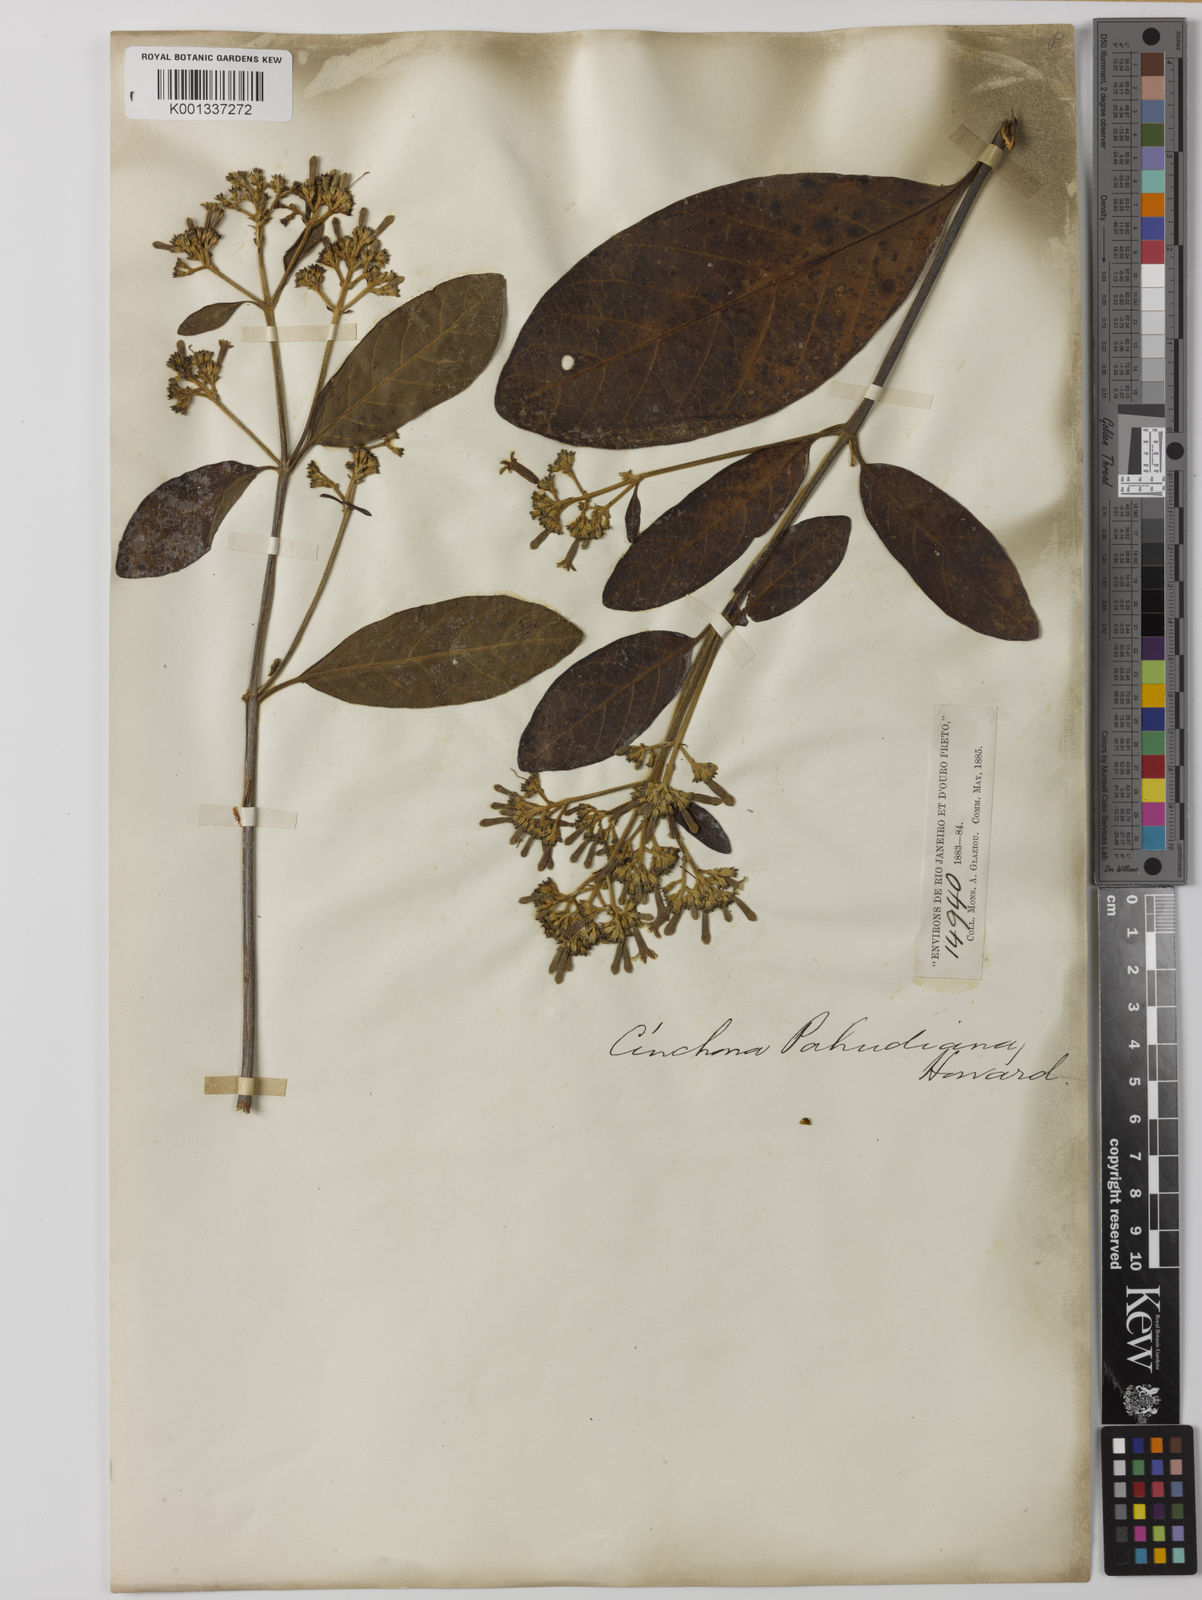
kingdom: Plantae
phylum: Tracheophyta
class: Magnoliopsida
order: Gentianales
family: Rubiaceae
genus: Cinchona
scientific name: Cinchona calisaya
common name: Ledgerbark
